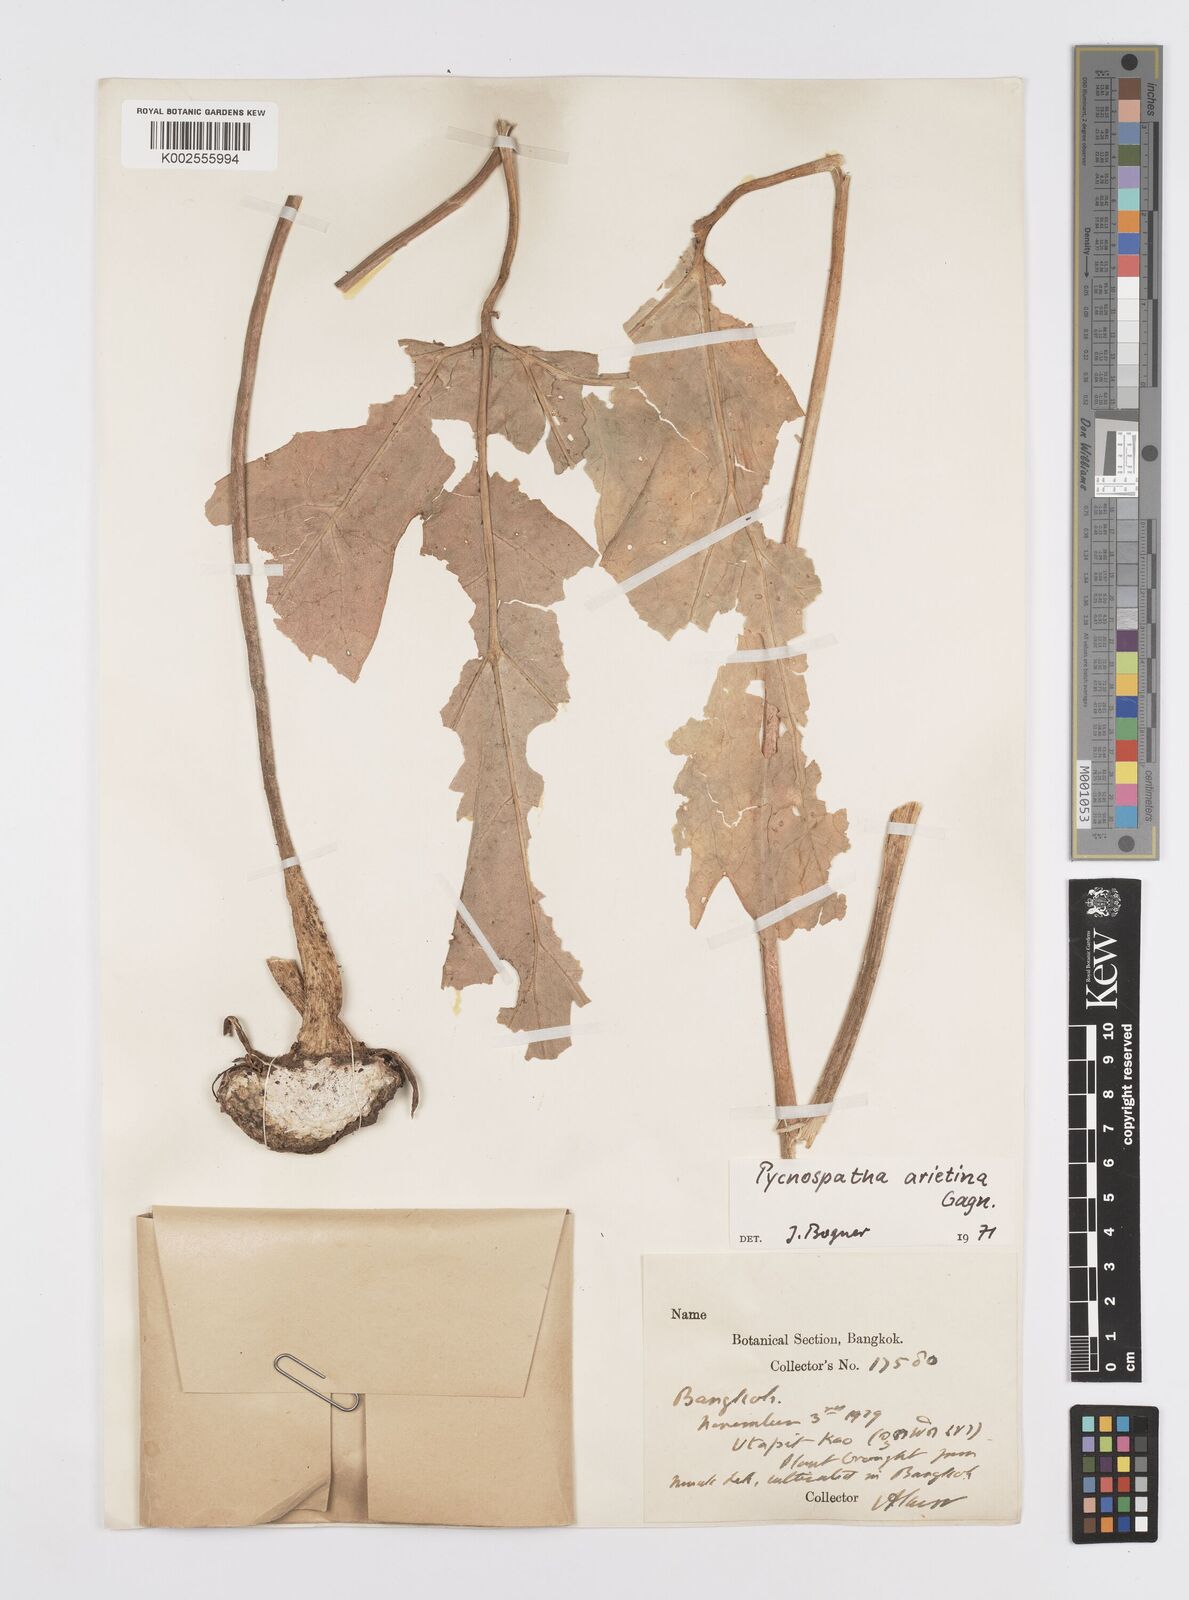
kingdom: Plantae
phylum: Tracheophyta
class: Liliopsida
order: Alismatales
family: Araceae
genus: Pycnospatha
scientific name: Pycnospatha arietina
